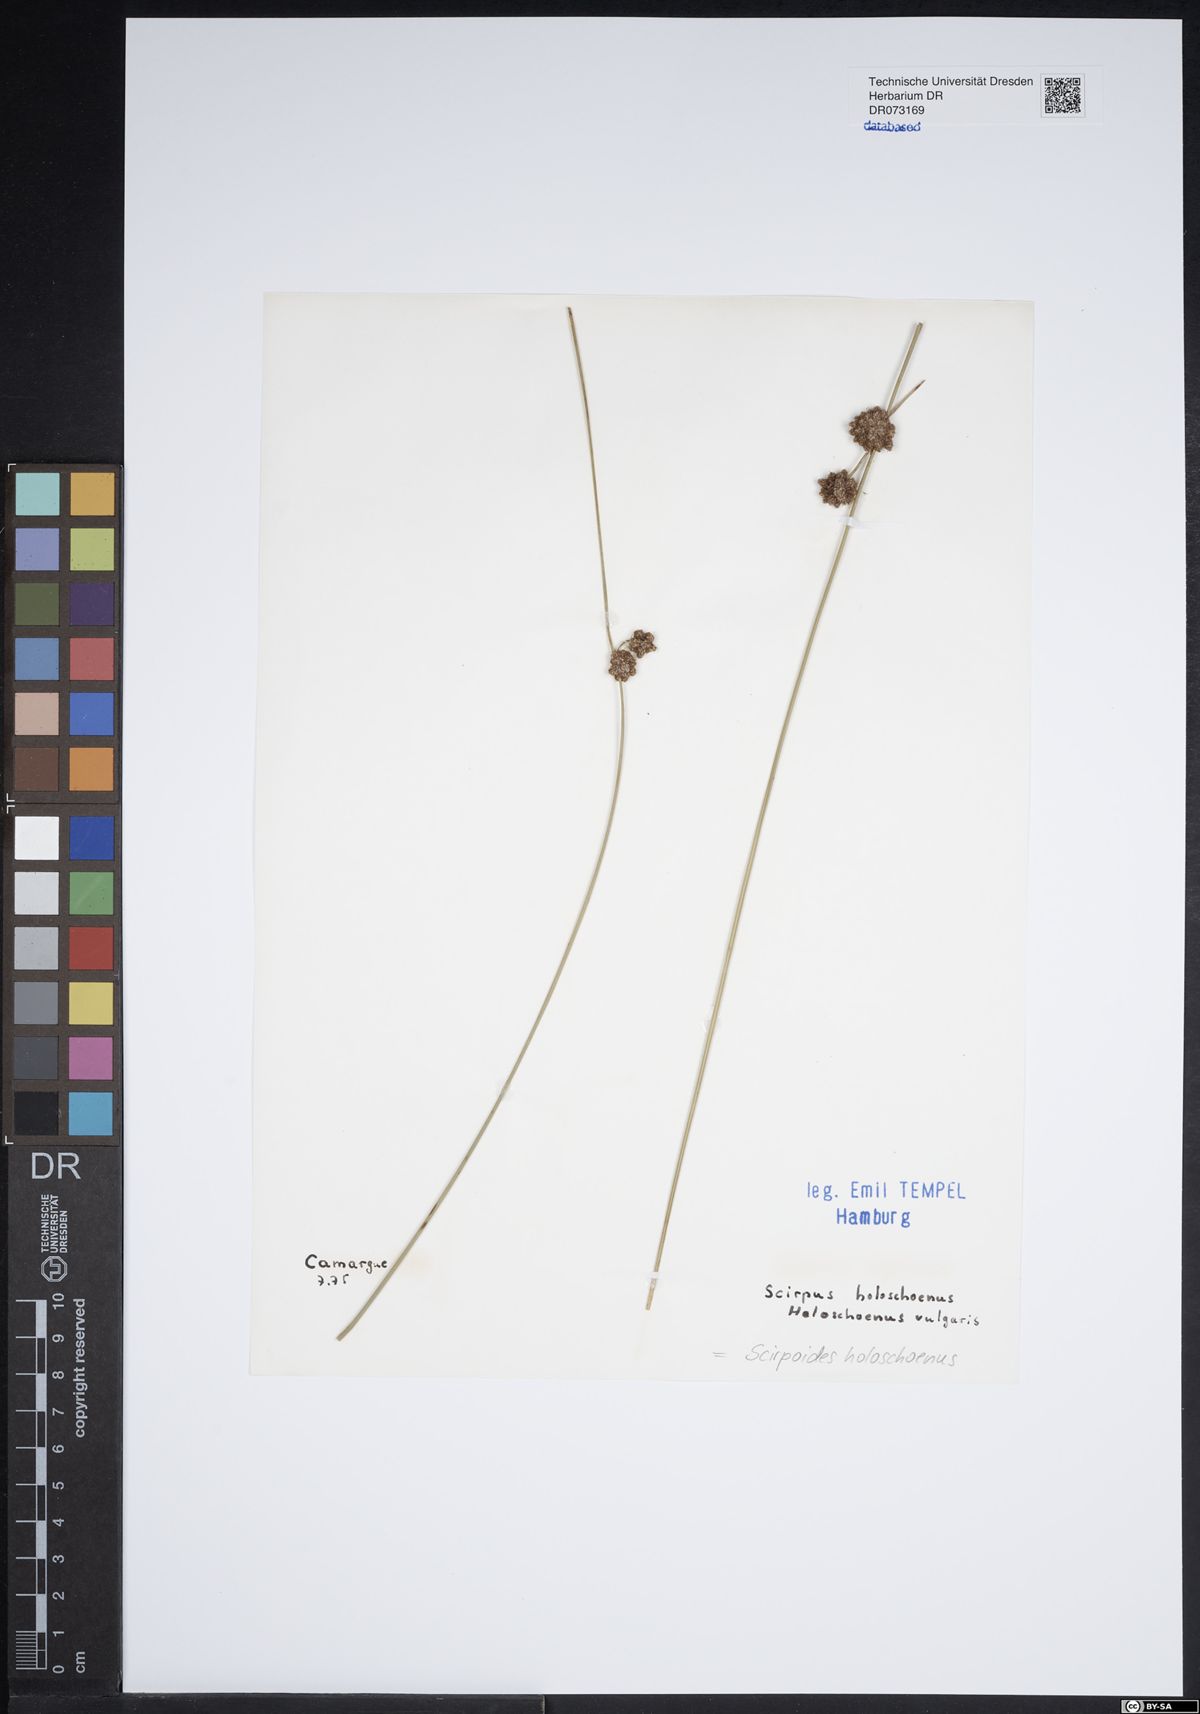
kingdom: Plantae
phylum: Tracheophyta
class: Liliopsida
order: Poales
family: Cyperaceae
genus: Scirpoides
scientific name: Scirpoides holoschoenus
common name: Round-headed club-rush
